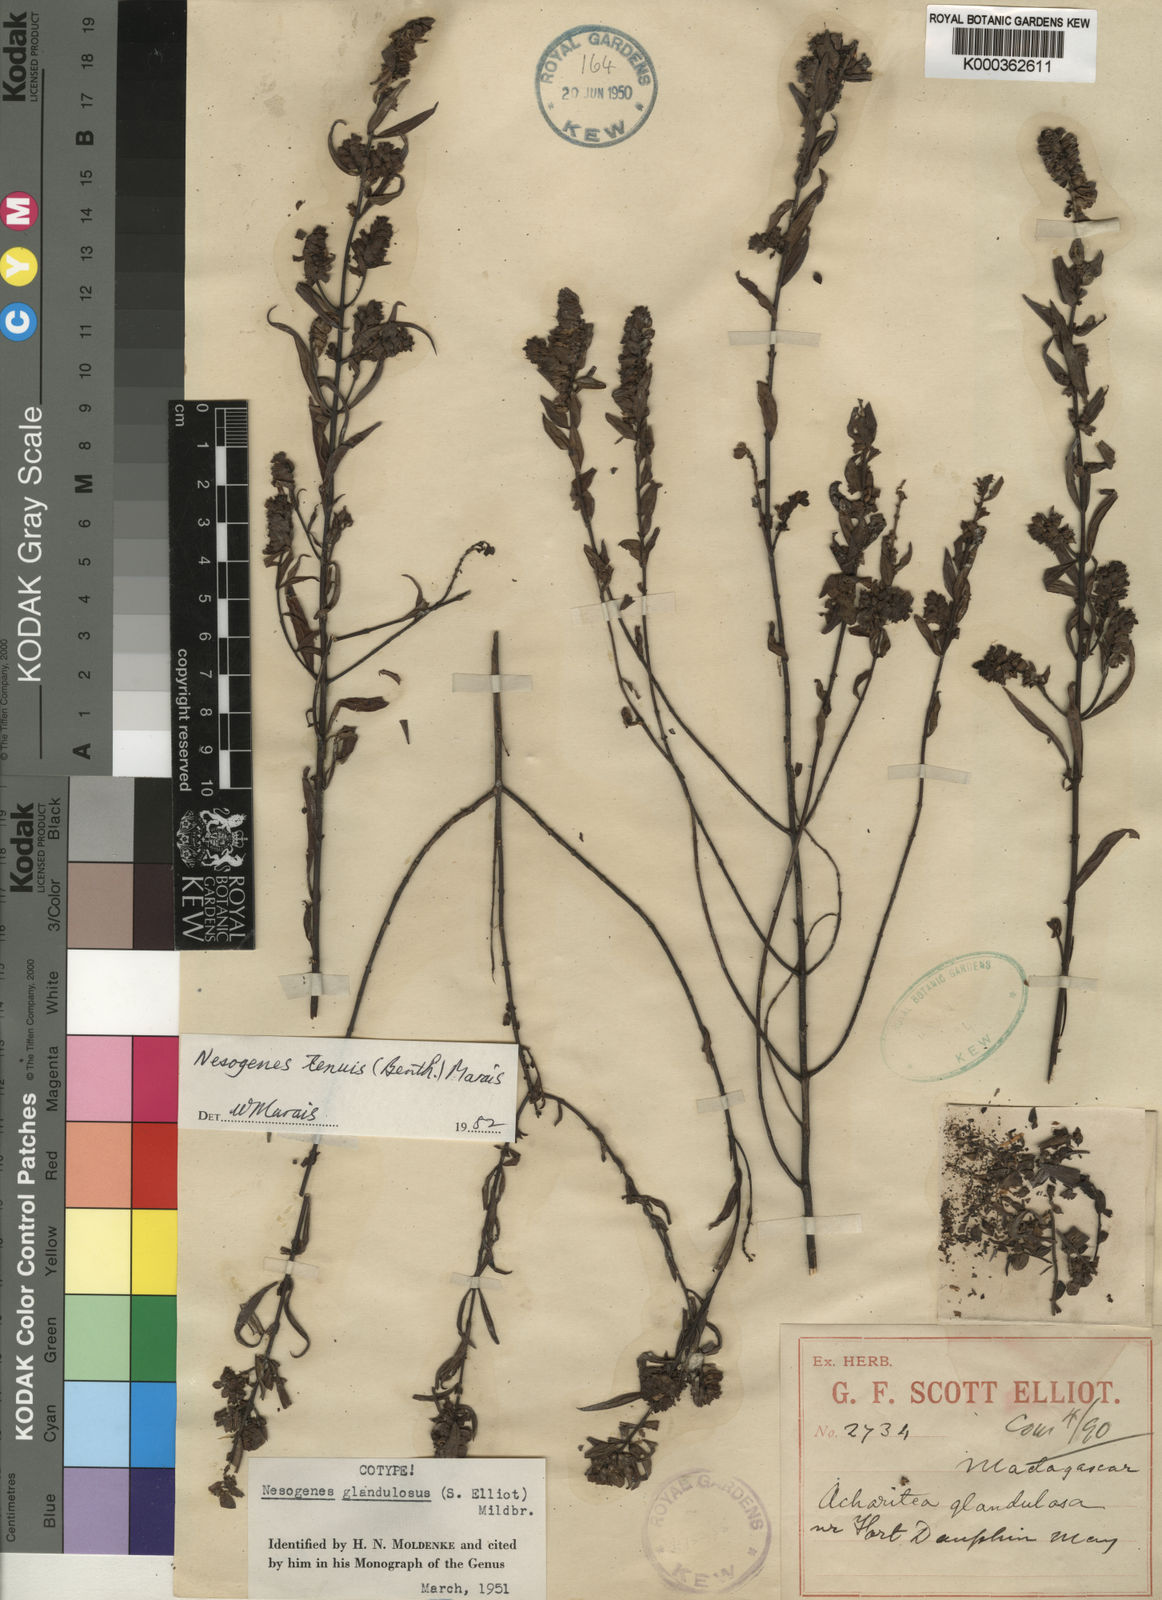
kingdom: Plantae
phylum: Tracheophyta
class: Magnoliopsida
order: Lamiales
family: Orobanchaceae
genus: Nesogenes
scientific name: Nesogenes tenuis
